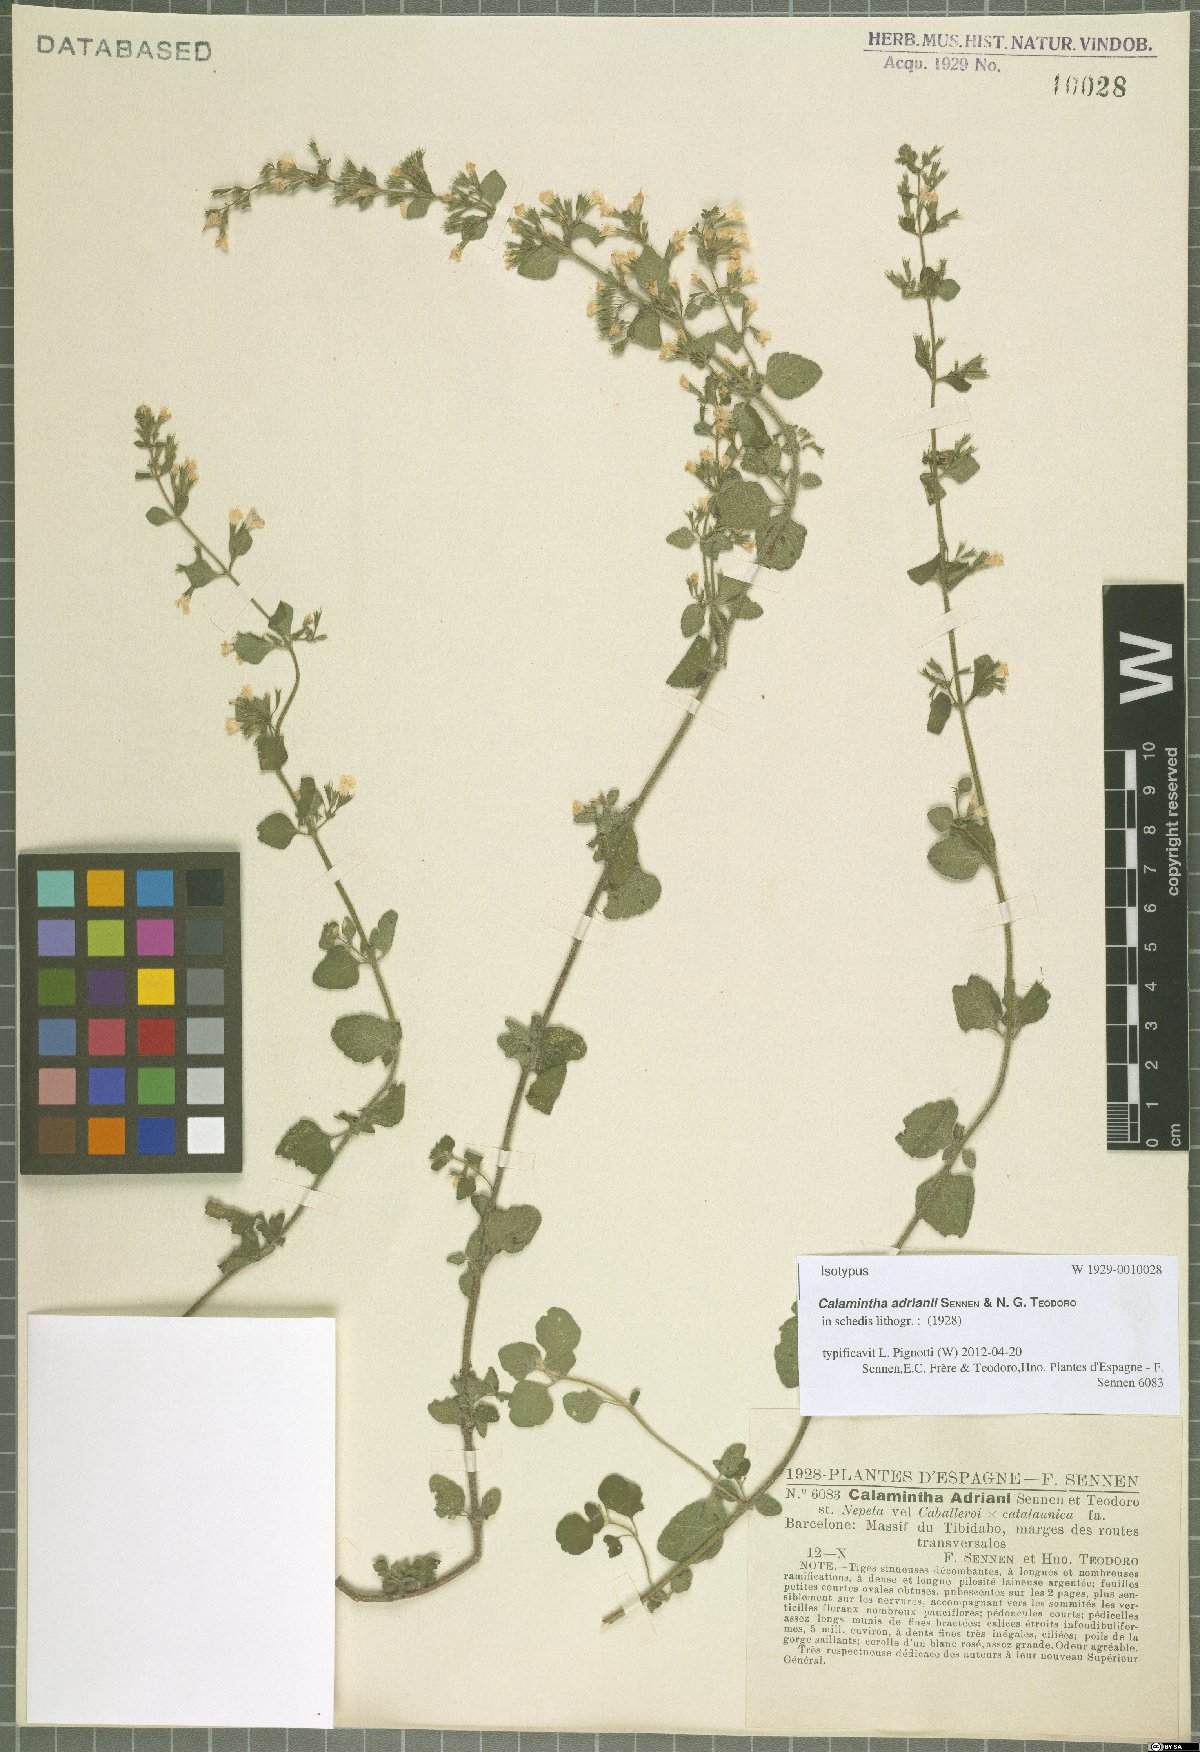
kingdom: Plantae
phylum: Tracheophyta
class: Magnoliopsida
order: Lamiales
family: Lamiaceae
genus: Clinopodium
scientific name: Clinopodium Calamintha adrianii
